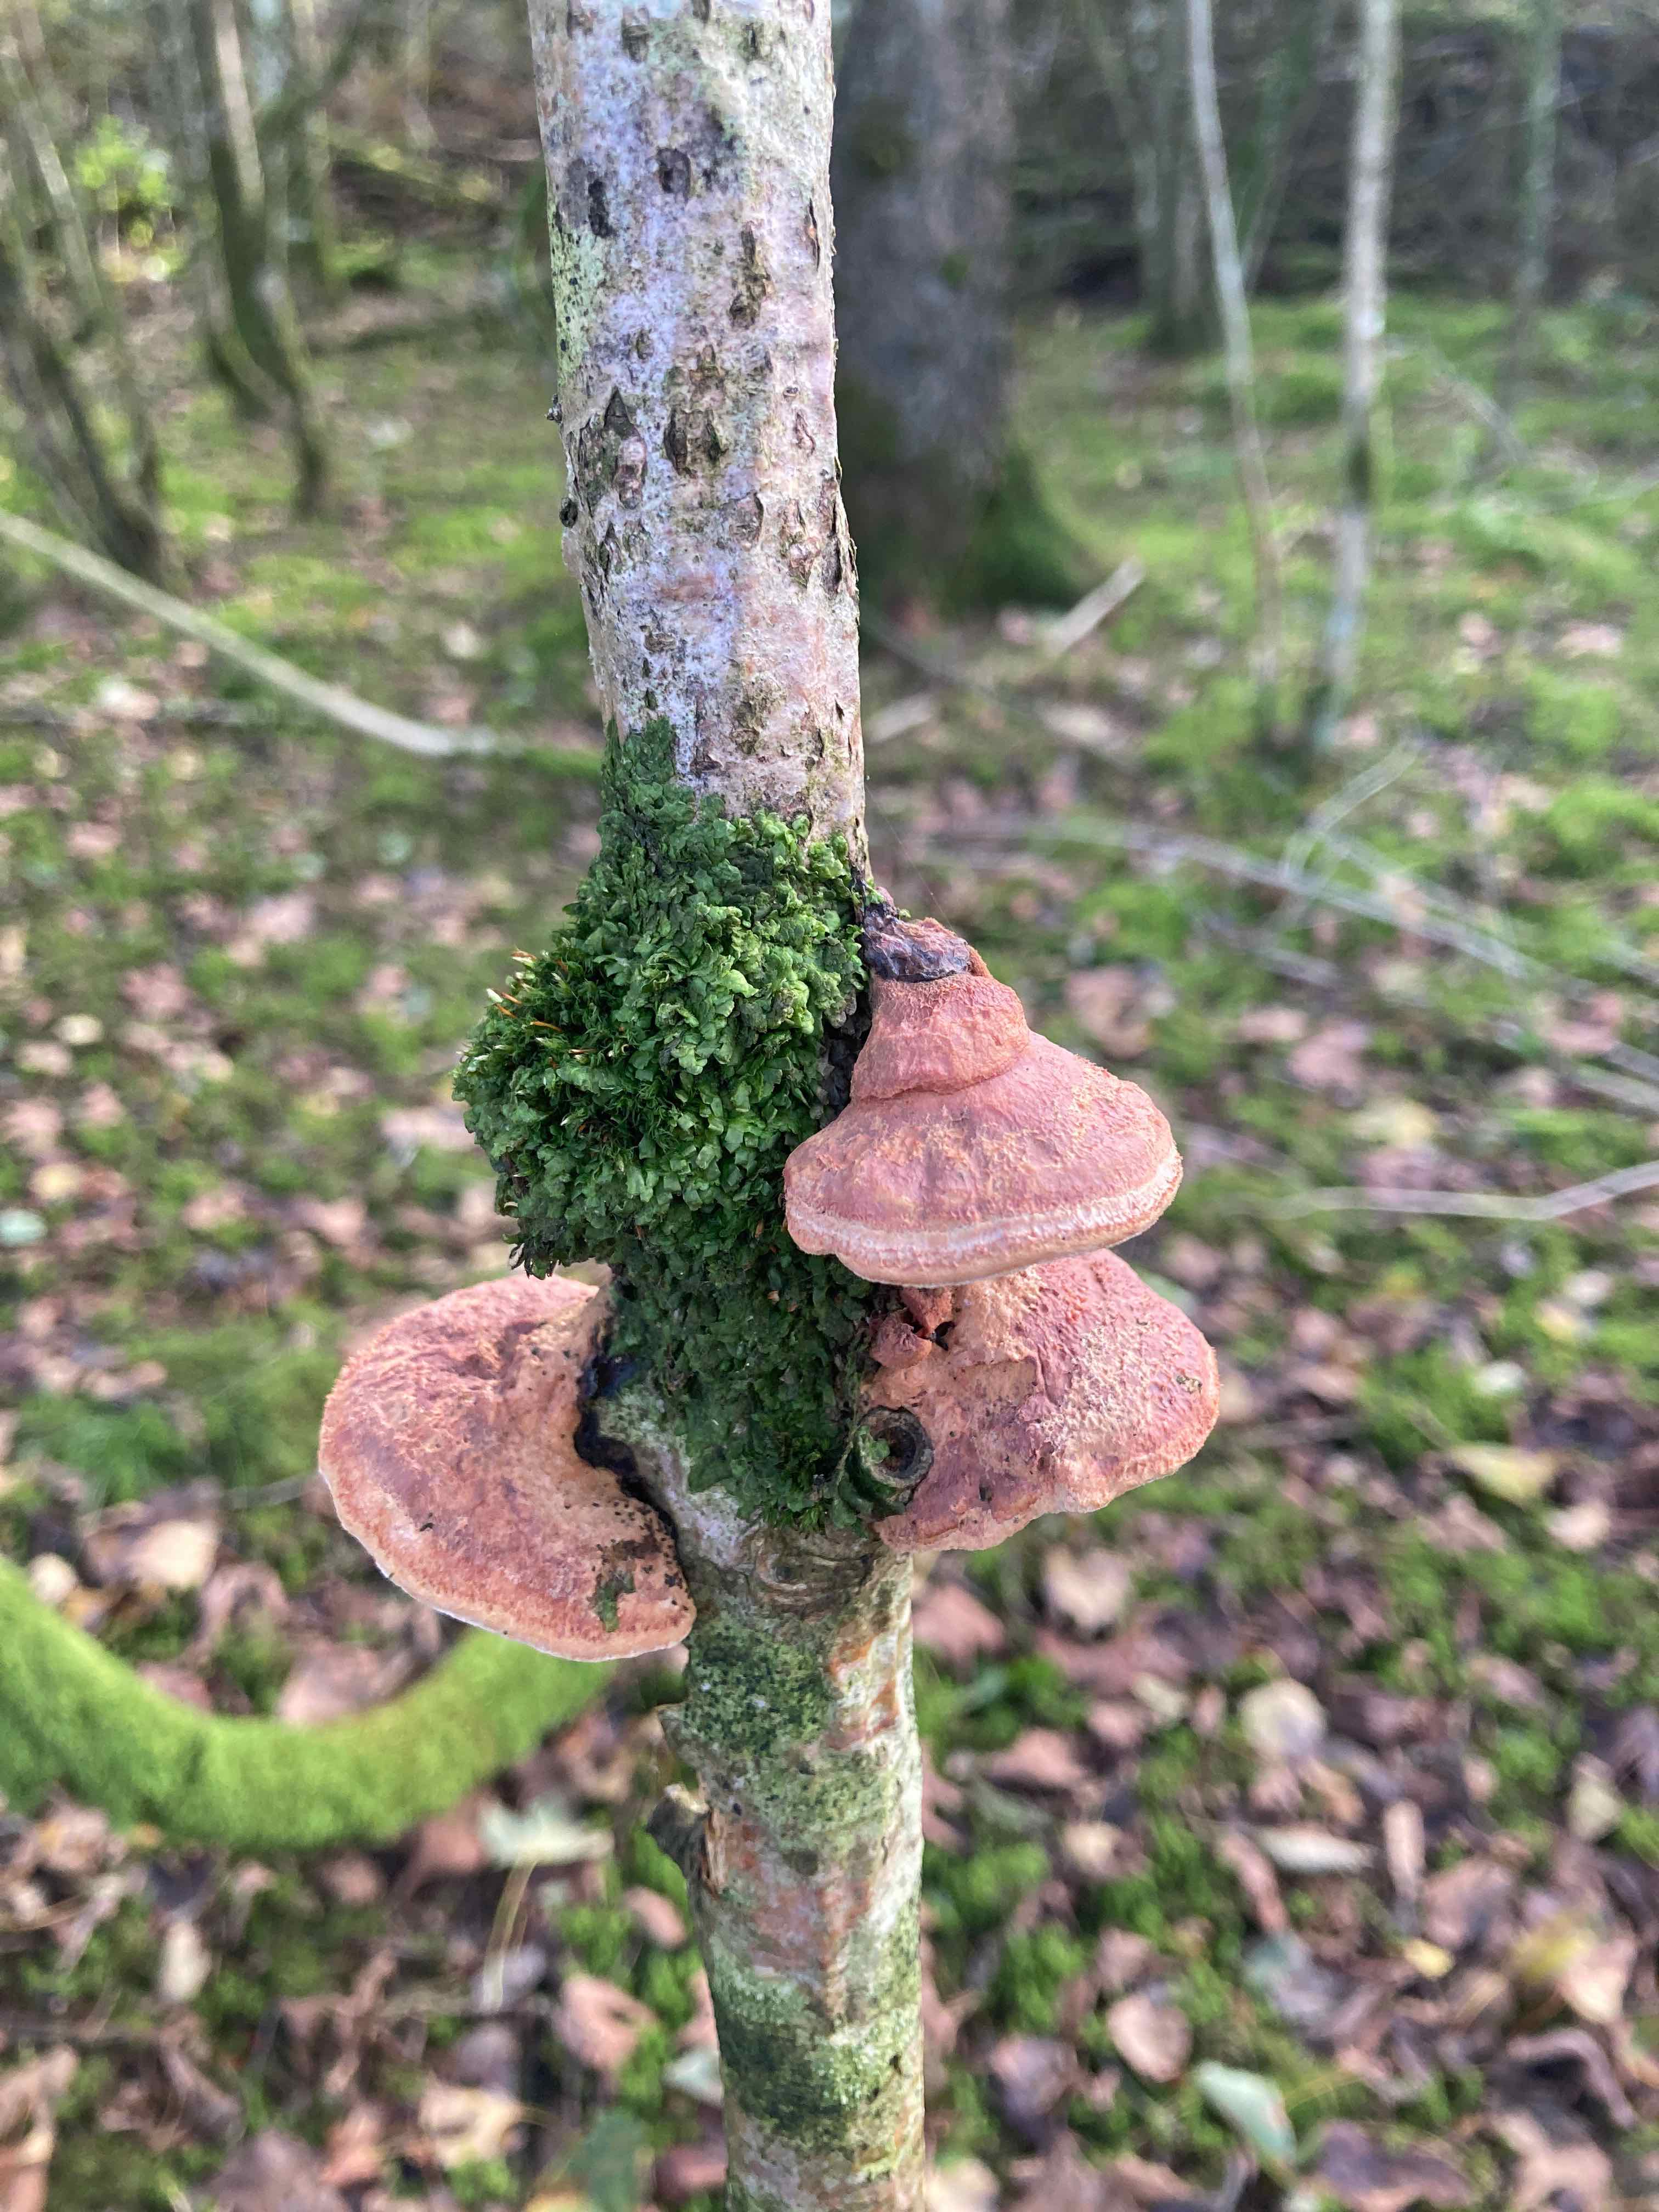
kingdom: Fungi
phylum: Basidiomycota
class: Agaricomycetes
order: Polyporales
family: Phanerochaetaceae
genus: Hapalopilus
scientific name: Hapalopilus rutilans
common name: rødlig okkerporesvamp
